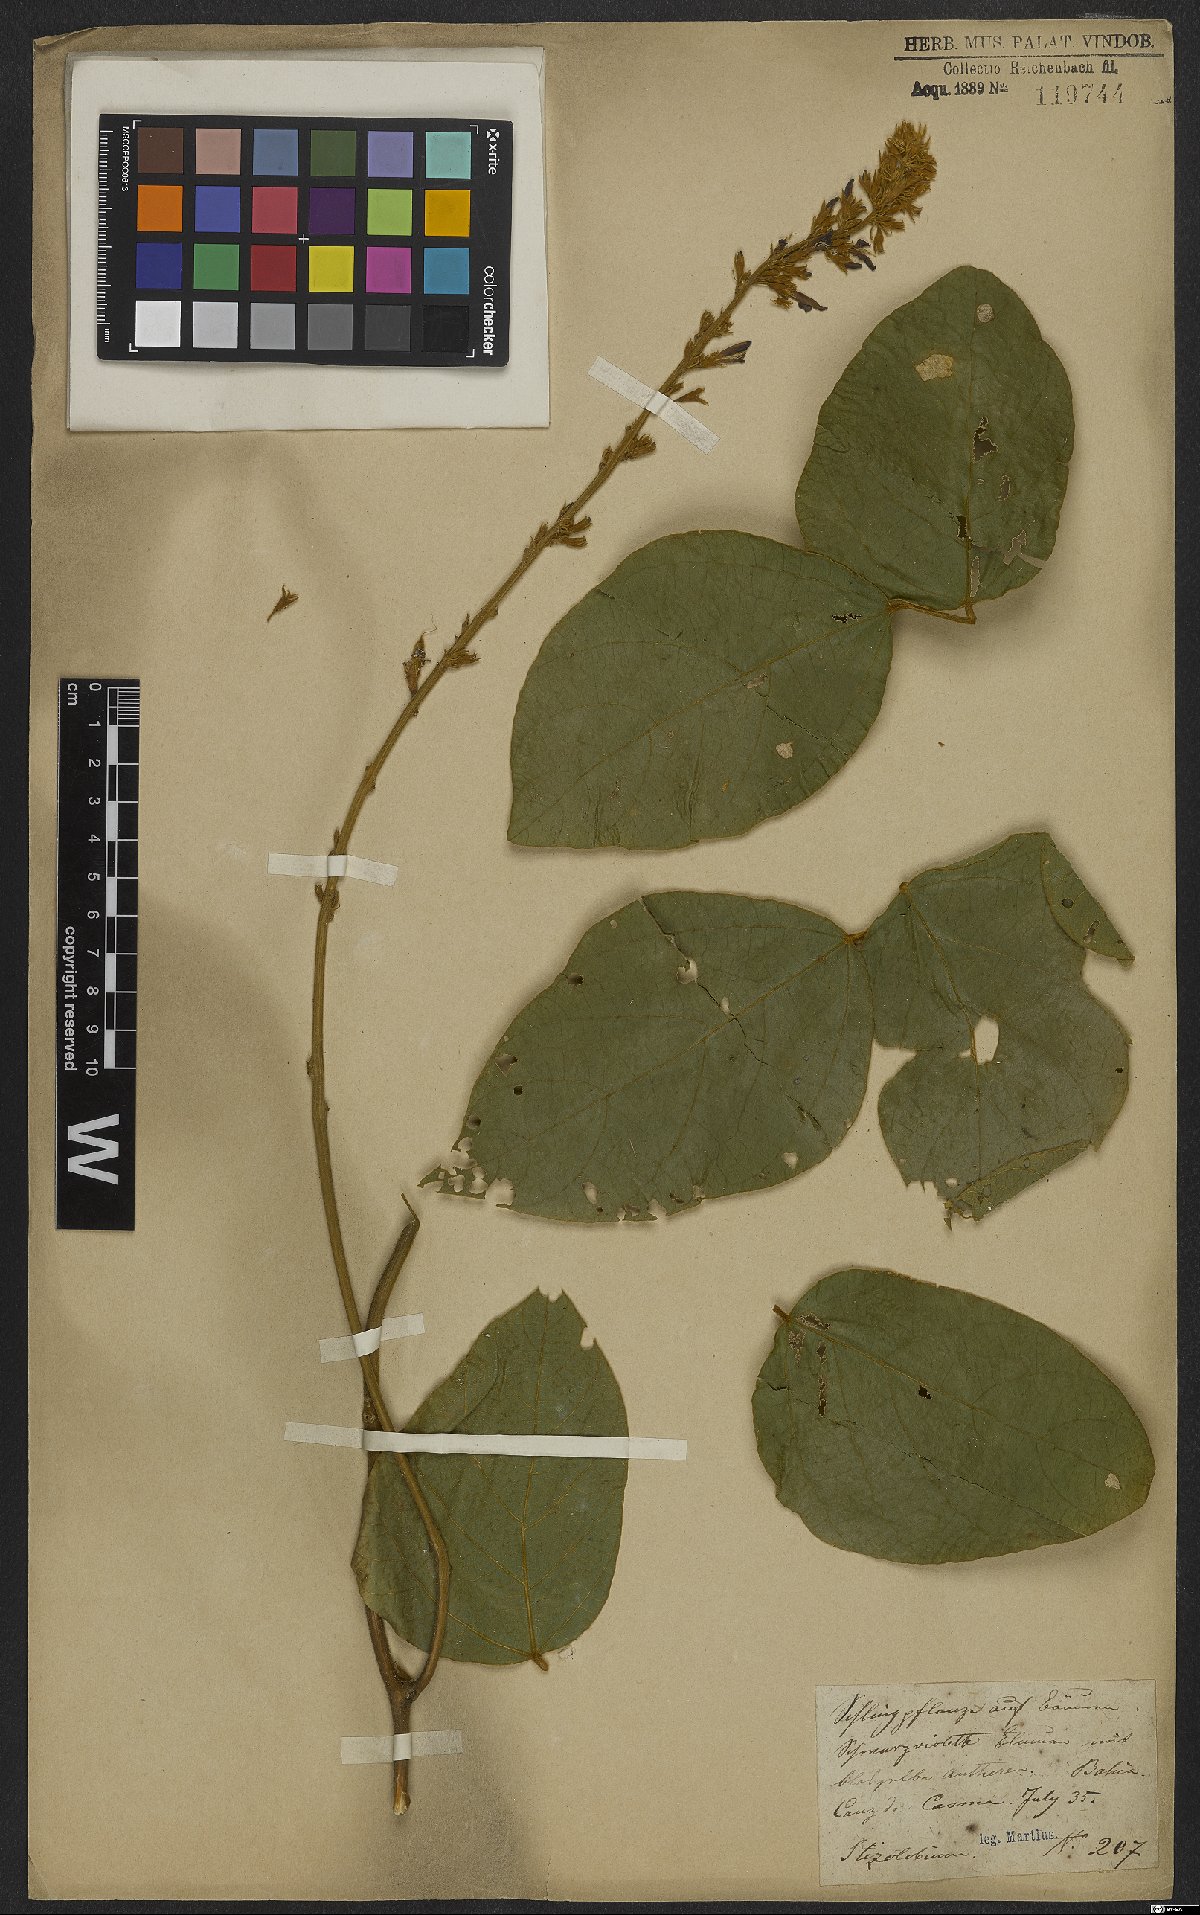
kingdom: Plantae
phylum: Tracheophyta
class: Magnoliopsida
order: Fabales
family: Fabaceae
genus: Mucuna
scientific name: Mucuna
